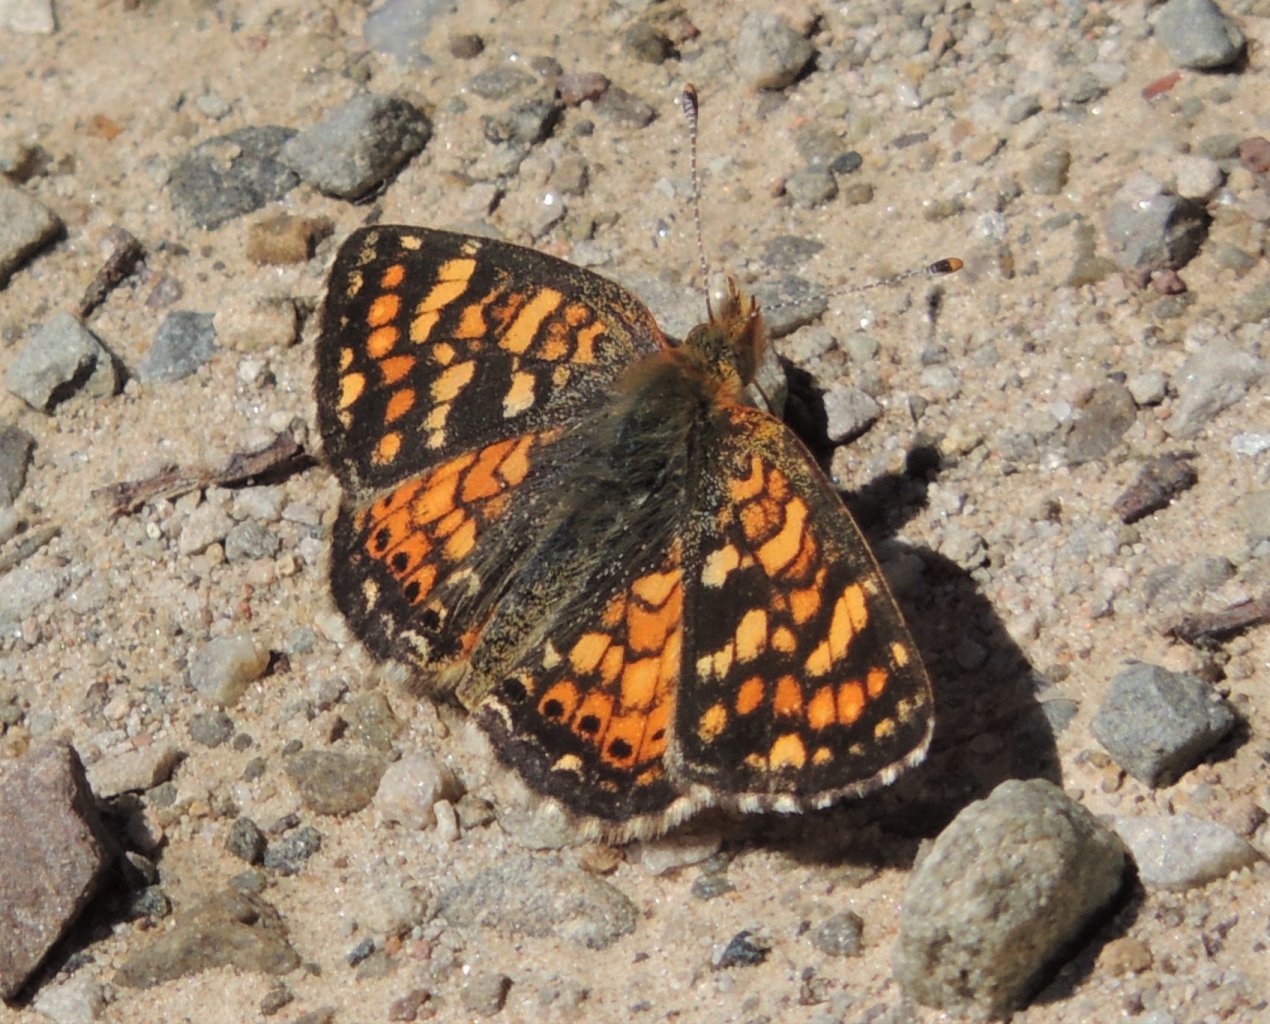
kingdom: Animalia
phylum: Arthropoda
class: Insecta
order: Lepidoptera
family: Nymphalidae
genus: Phyciodes
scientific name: Phyciodes tharos
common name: Field Crescent
